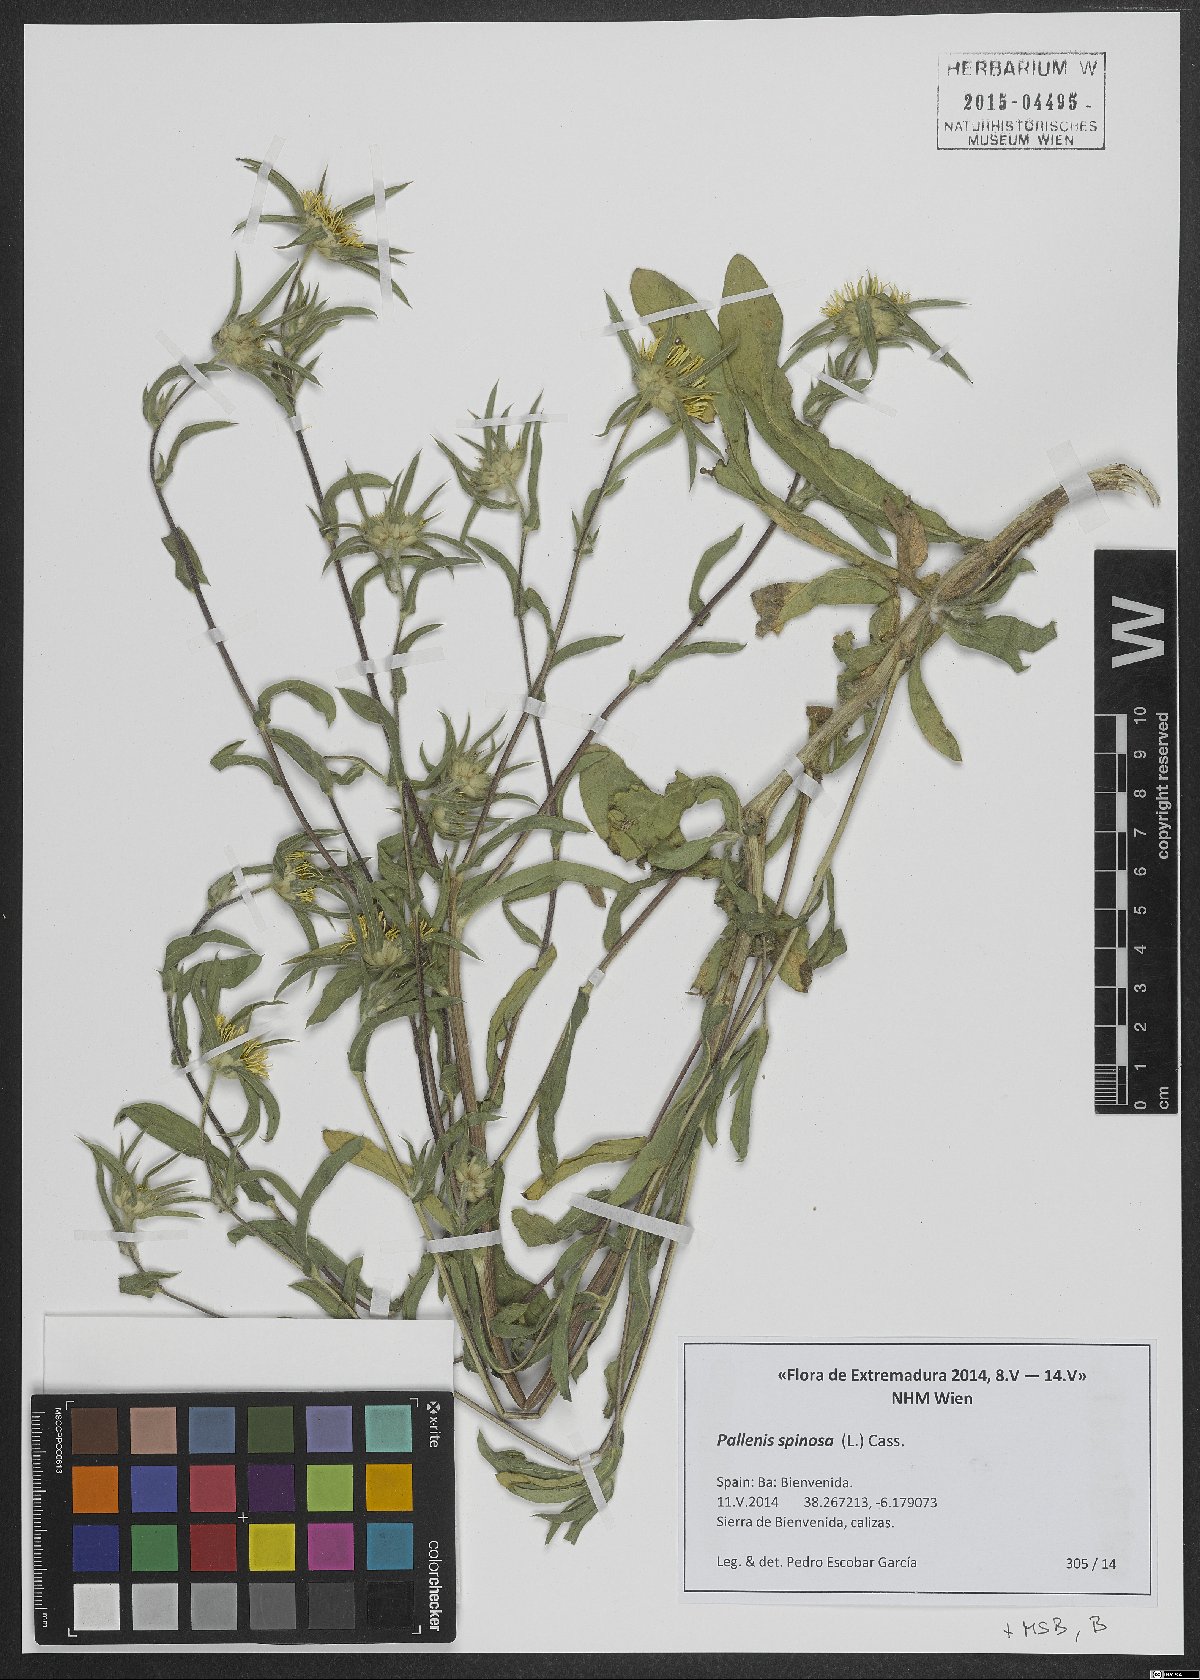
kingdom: Plantae
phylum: Tracheophyta
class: Magnoliopsida
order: Asterales
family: Asteraceae
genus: Pallenis
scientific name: Pallenis spinosa
